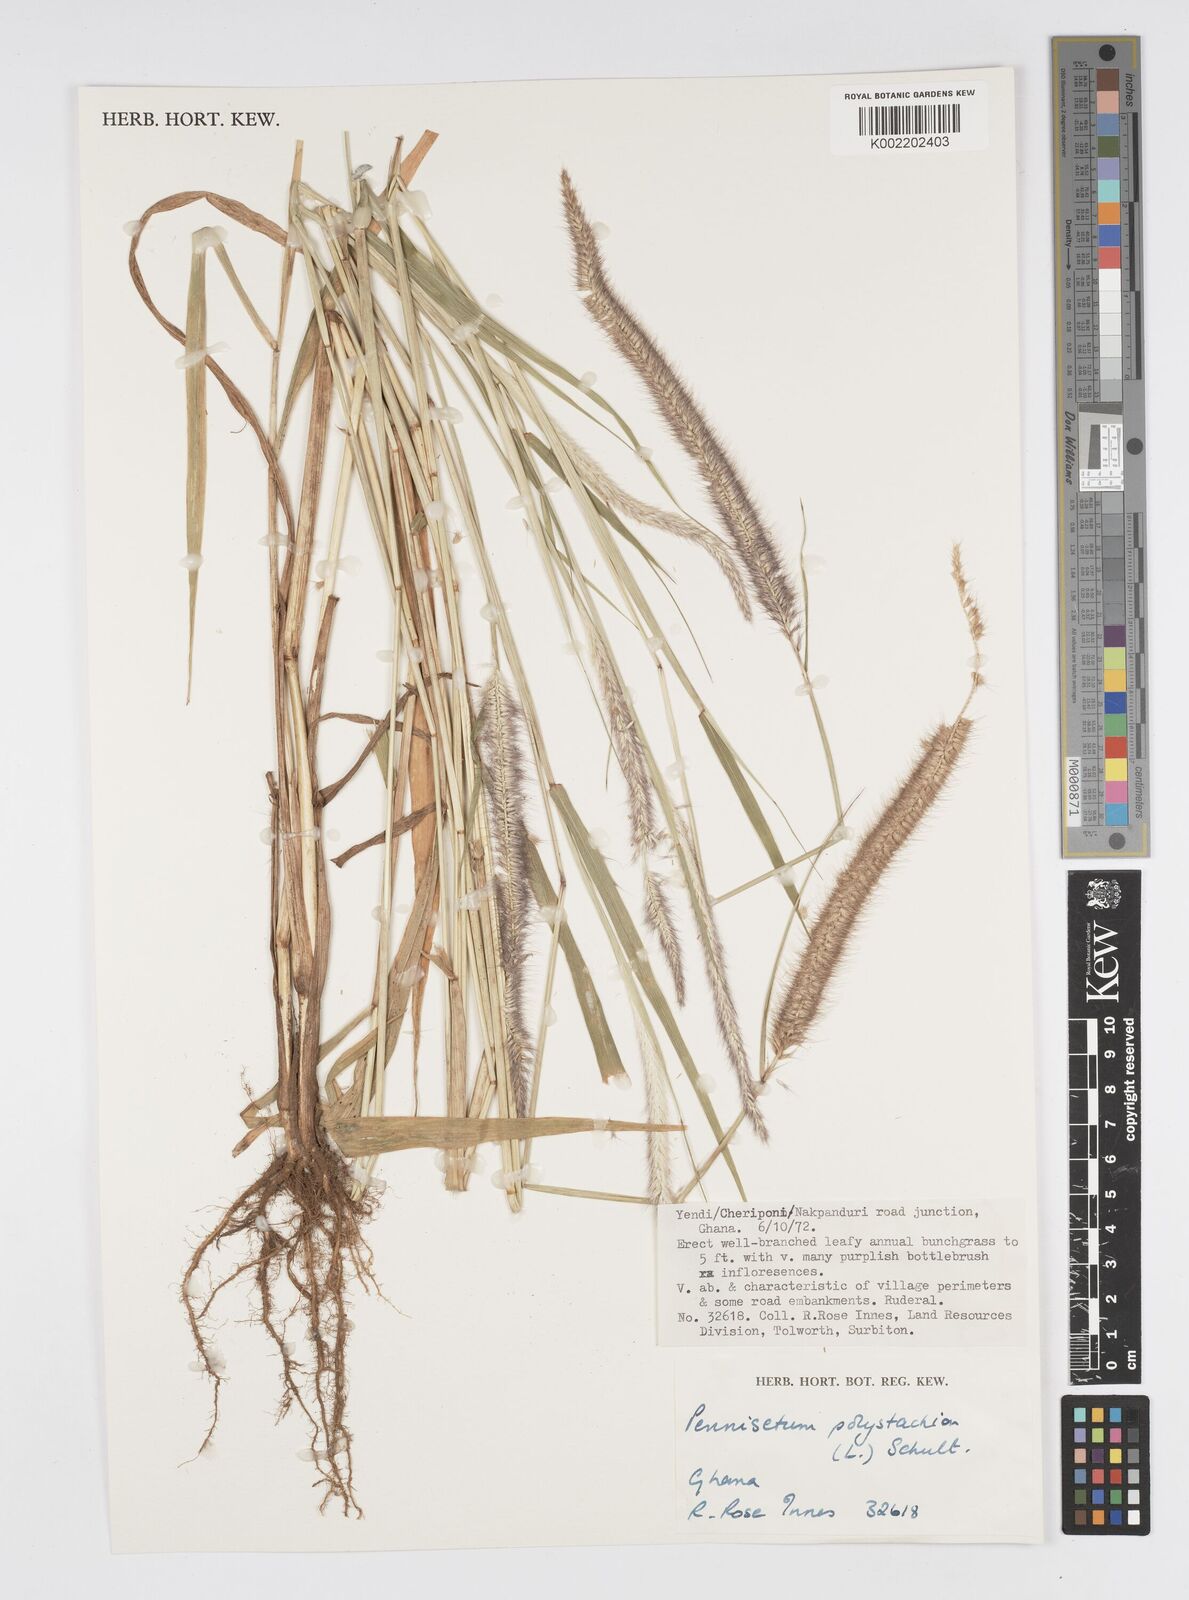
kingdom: Plantae
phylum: Tracheophyta
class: Liliopsida
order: Poales
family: Poaceae
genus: Setaria
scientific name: Setaria parviflora
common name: Knotroot bristle-grass
